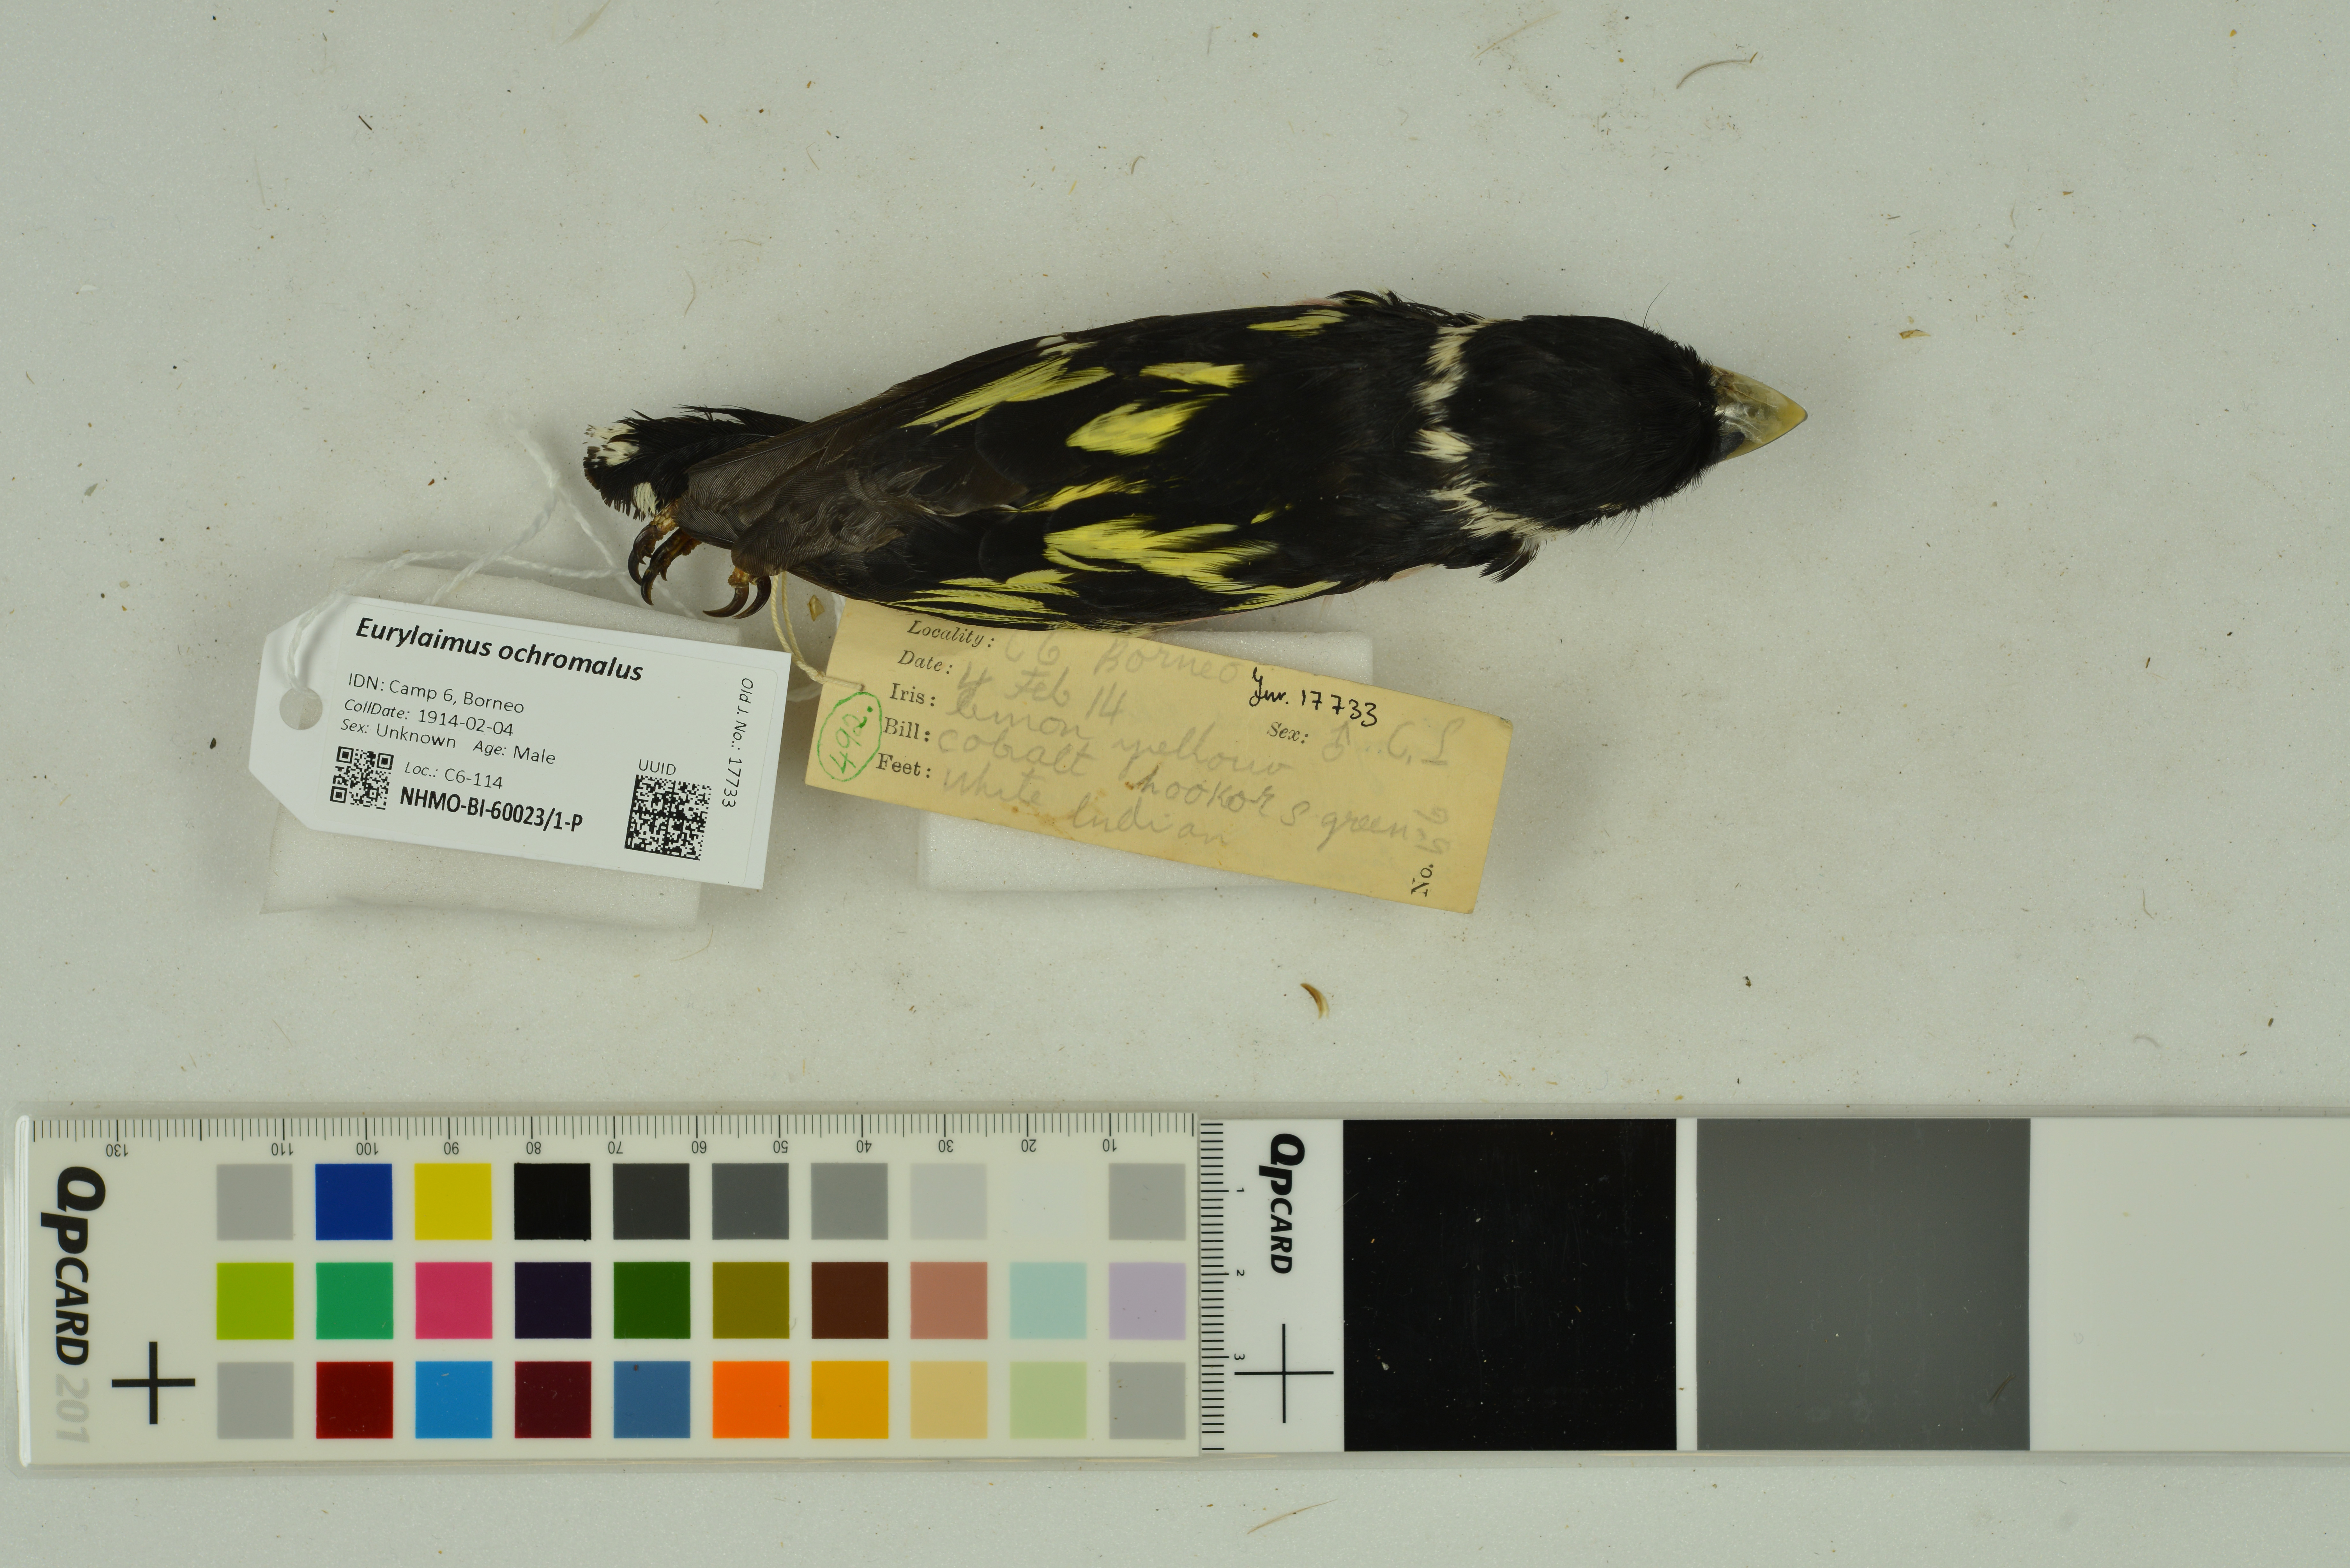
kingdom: Animalia
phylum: Chordata
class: Aves
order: Passeriformes
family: Eurylaimidae
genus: Eurylaimus
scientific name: Eurylaimus ochromalus
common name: Black-and-yellow broadbill
